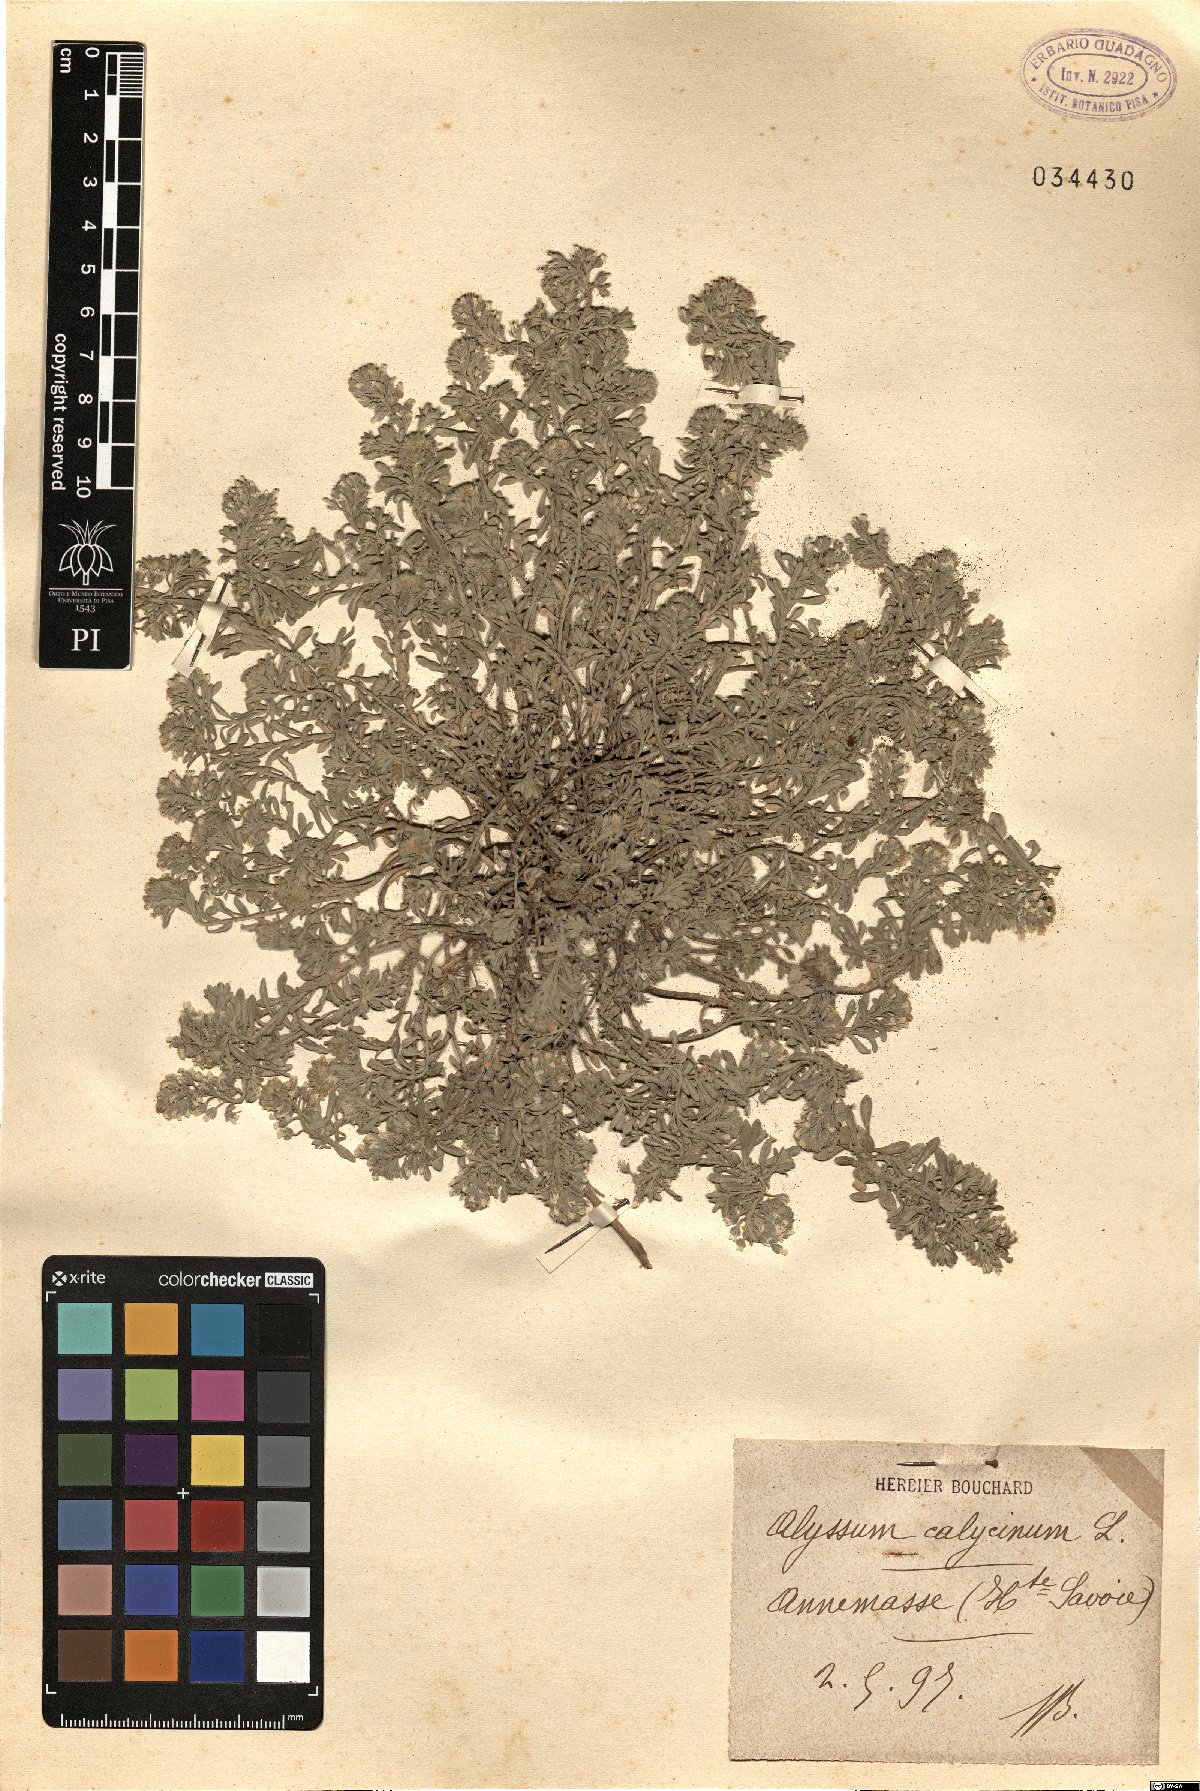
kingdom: Plantae
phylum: Tracheophyta
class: Magnoliopsida
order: Brassicales
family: Brassicaceae
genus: Alyssum
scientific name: Alyssum alyssoides
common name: Small alison
